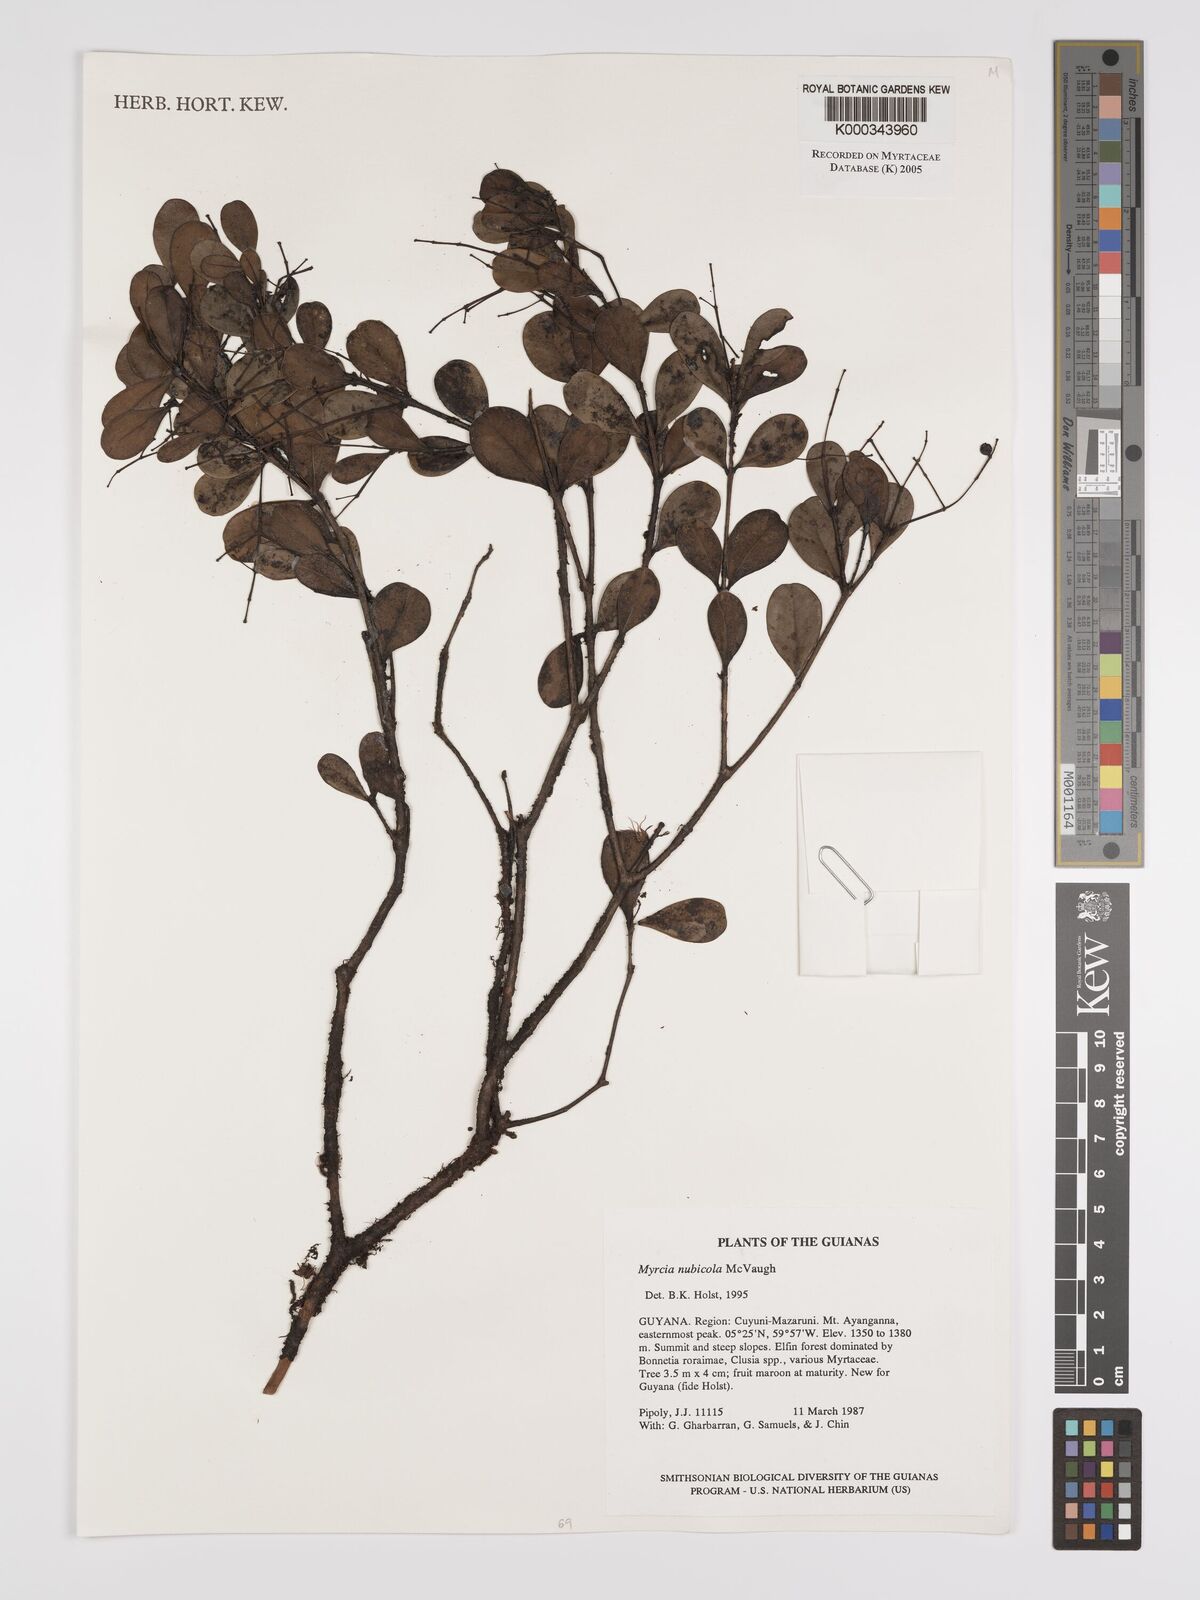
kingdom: Plantae
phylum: Tracheophyta
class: Magnoliopsida
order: Myrtales
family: Myrtaceae
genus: Myrcia
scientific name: Myrcia nubicola
